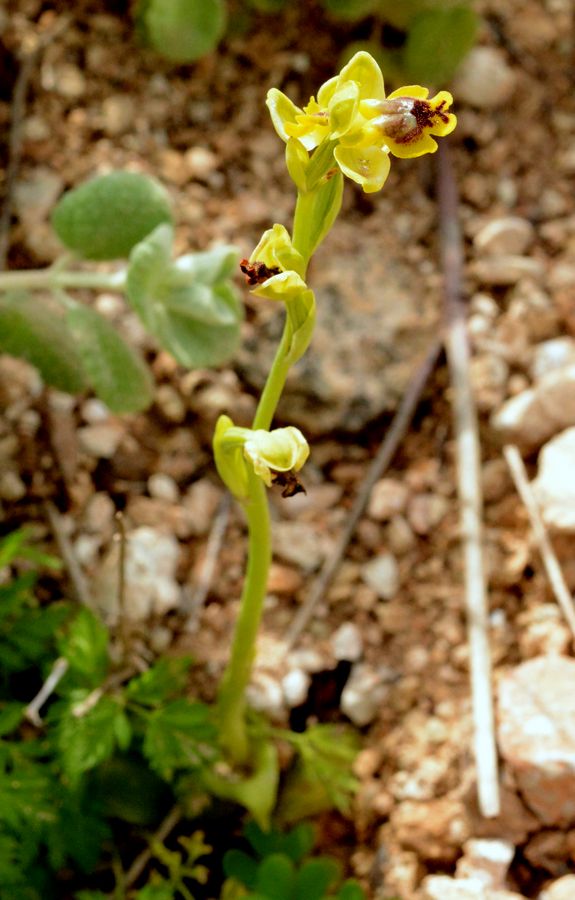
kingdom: Plantae
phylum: Tracheophyta
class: Liliopsida
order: Asparagales
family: Orchidaceae
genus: Ophrys
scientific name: Ophrys lutea
